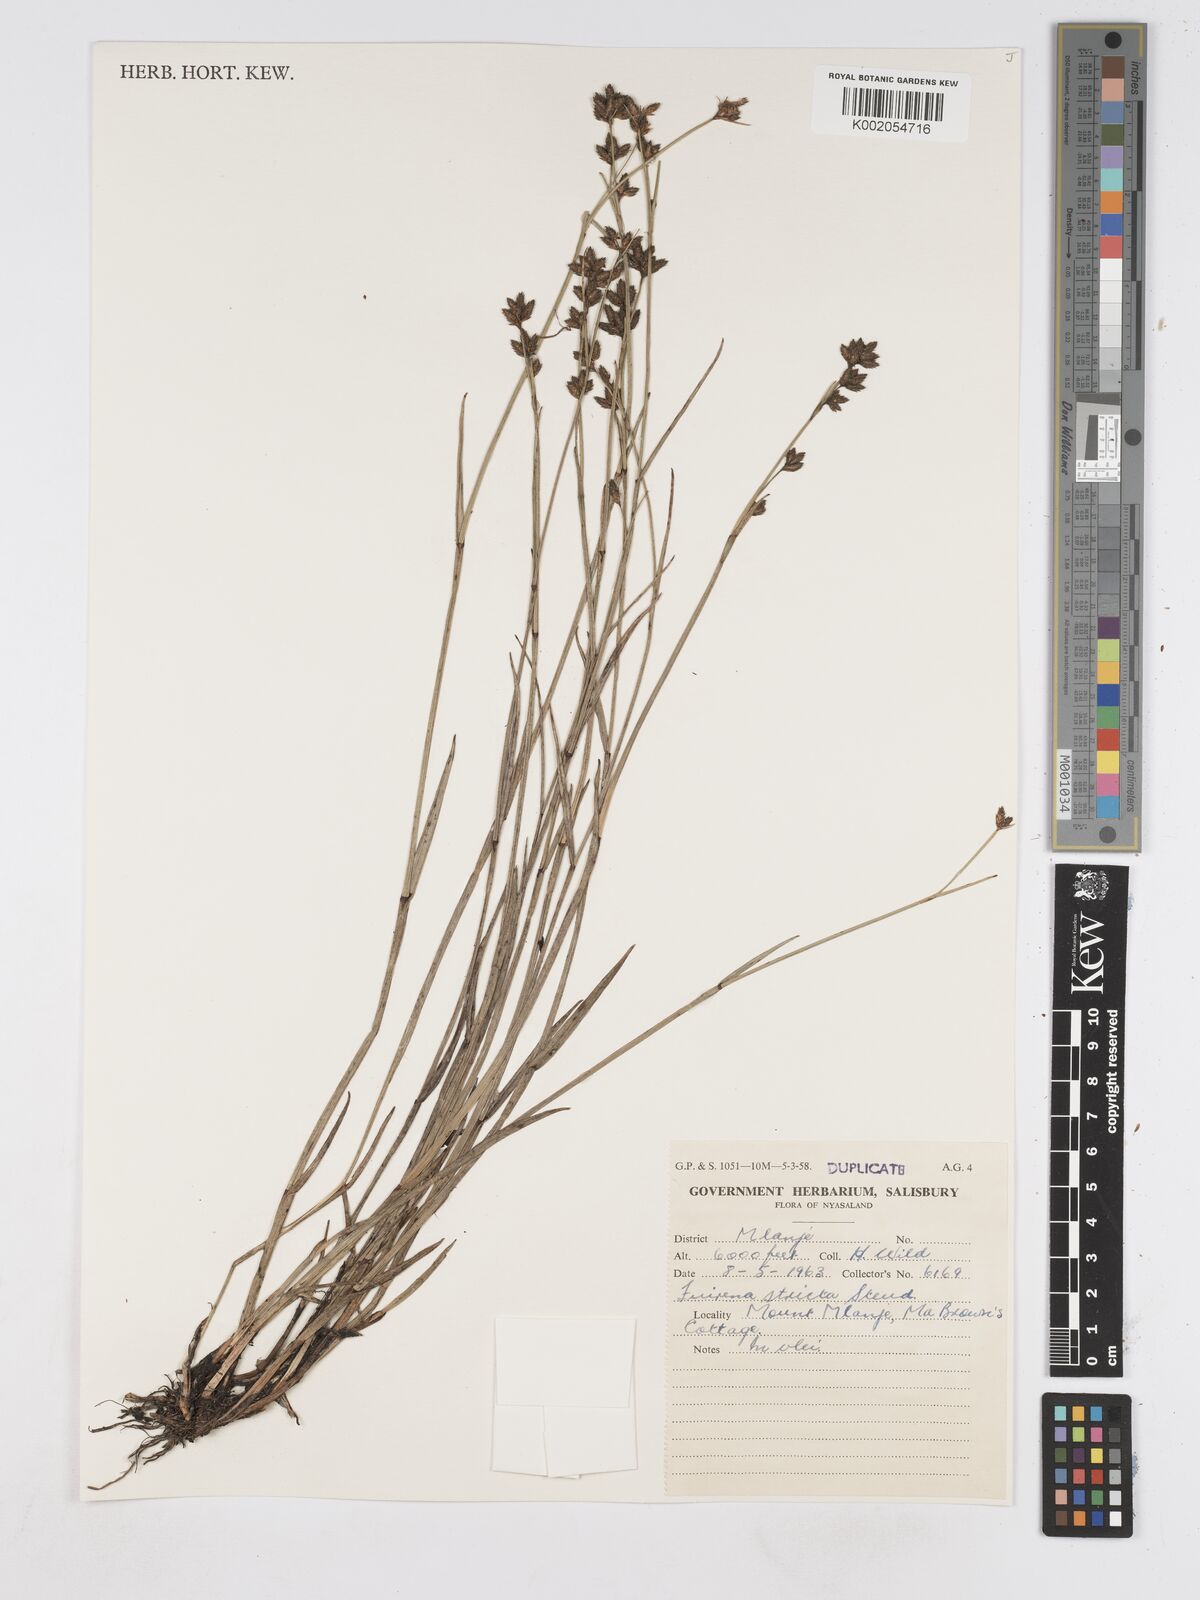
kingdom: Plantae
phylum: Tracheophyta
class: Liliopsida
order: Poales
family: Cyperaceae
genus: Fuirena
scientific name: Fuirena stricta
